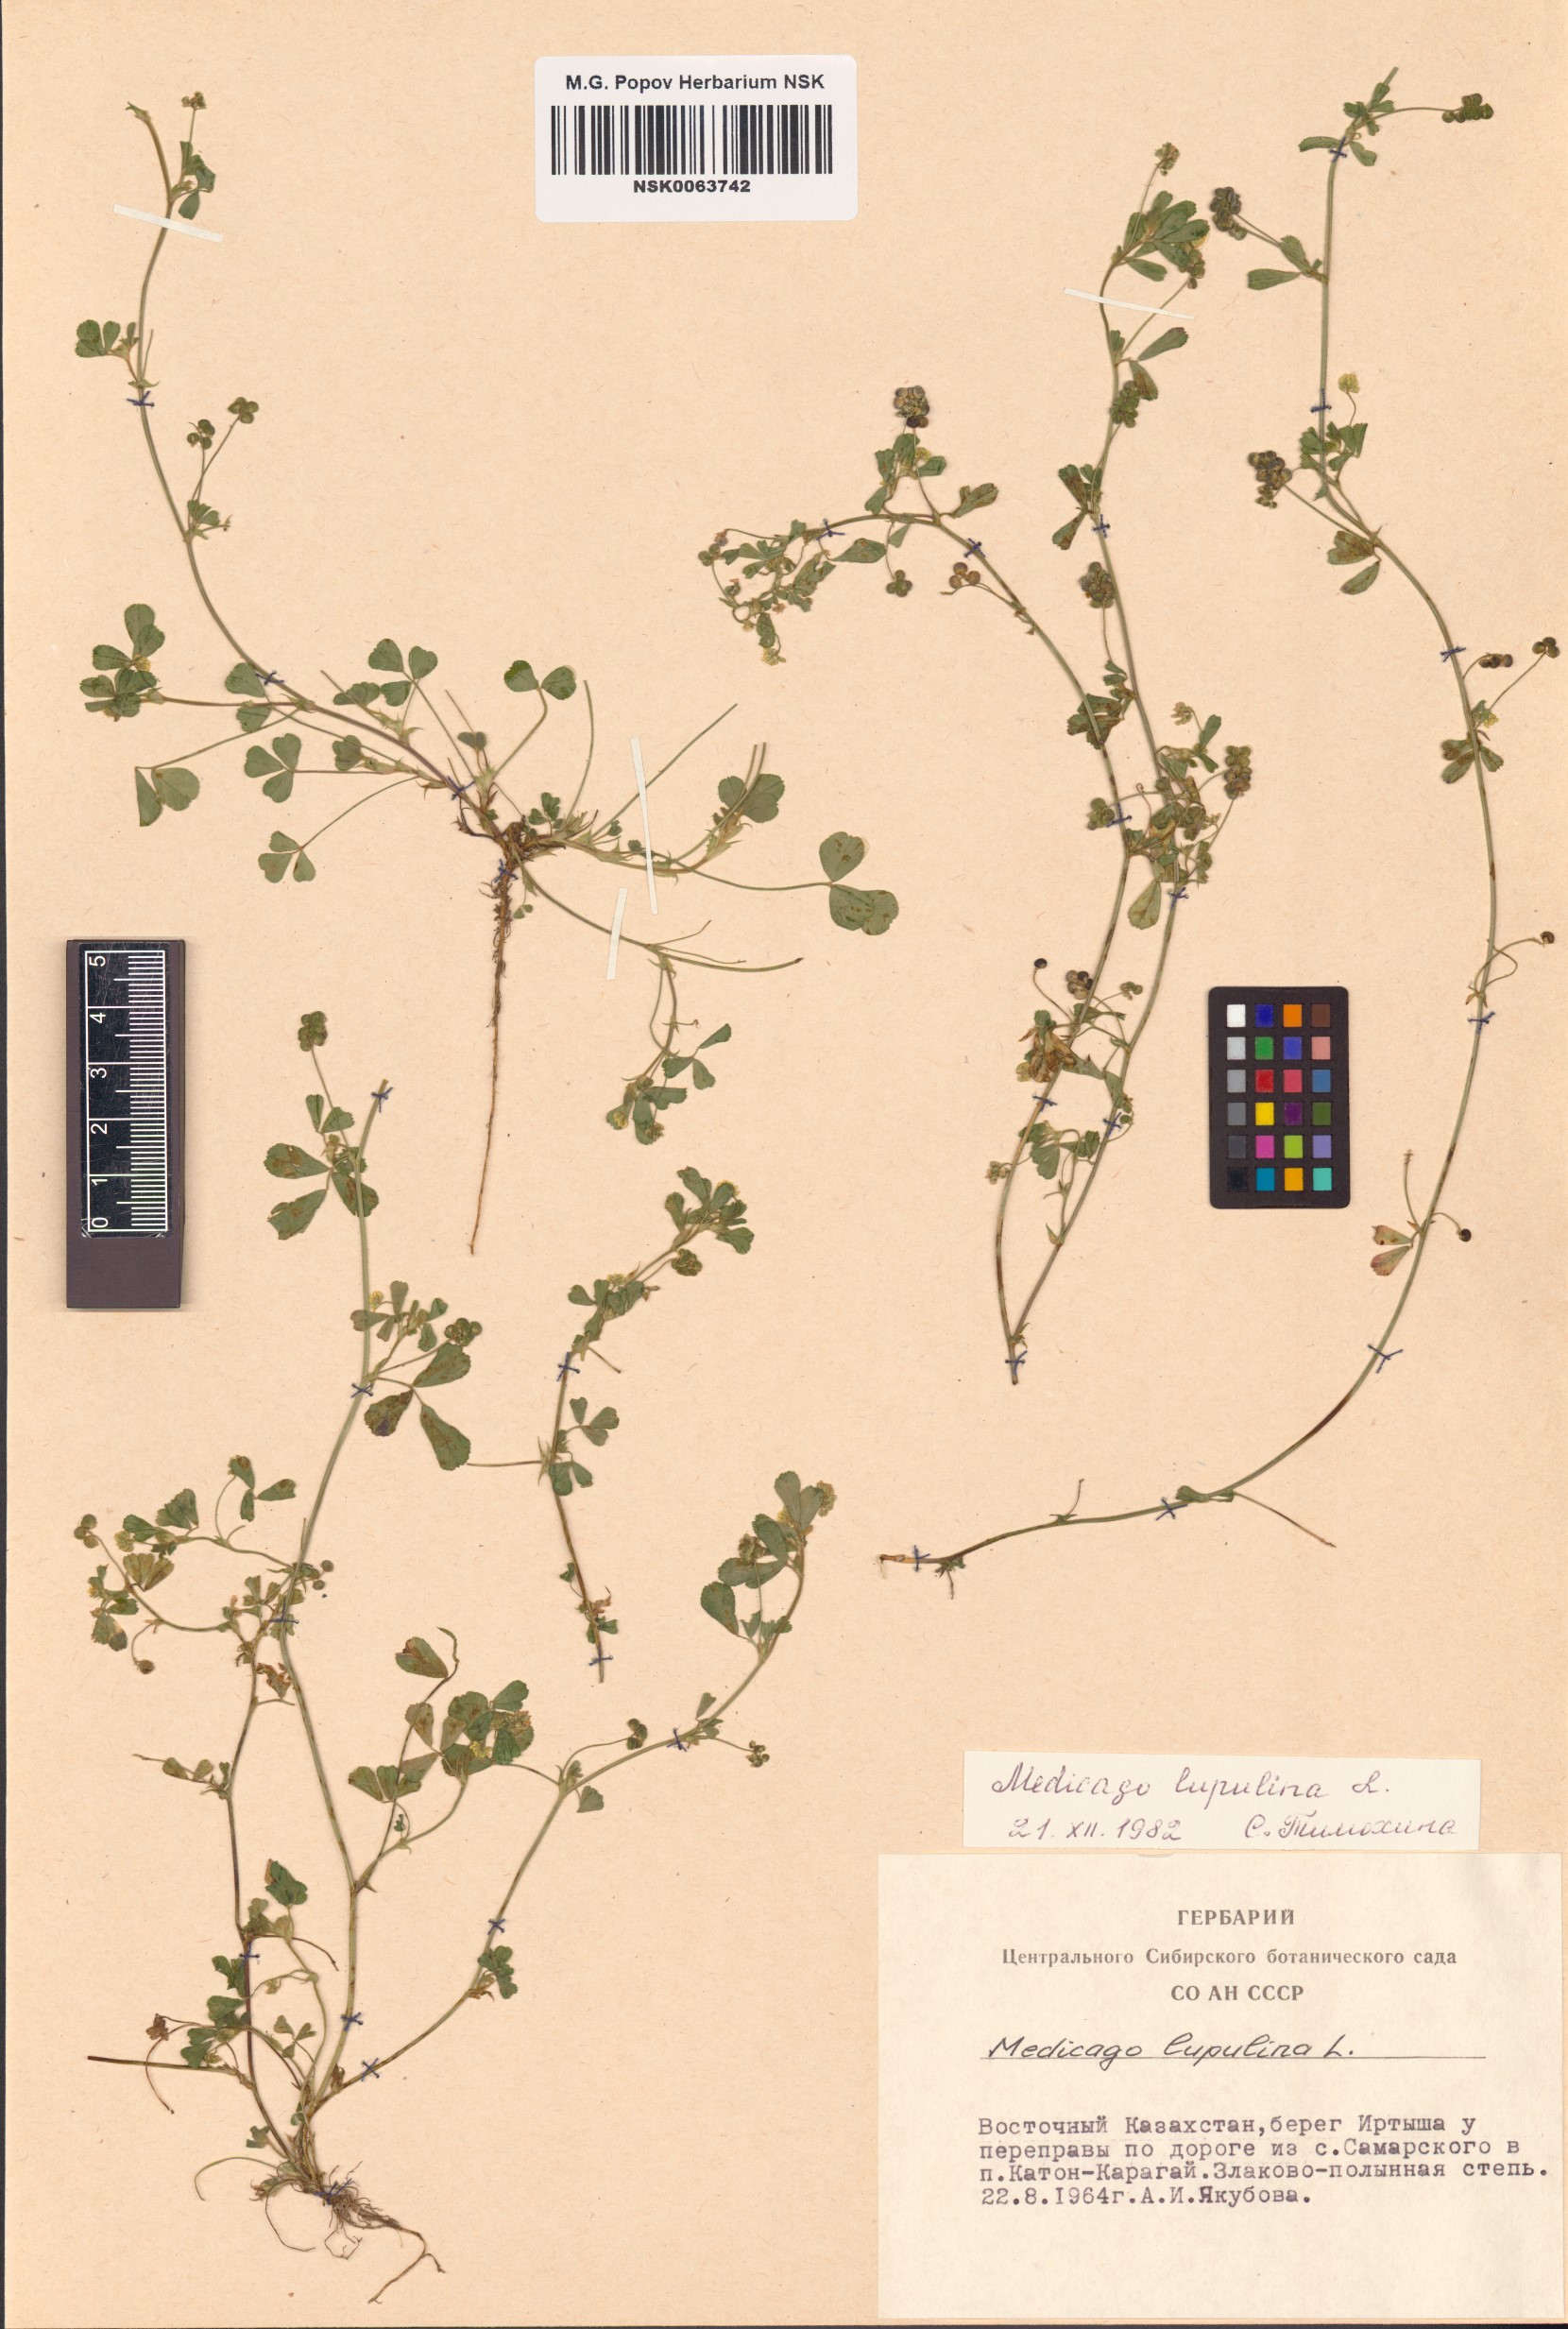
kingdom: Plantae
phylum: Tracheophyta
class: Magnoliopsida
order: Fabales
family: Fabaceae
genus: Medicago
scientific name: Medicago lupulina
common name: Black medick
